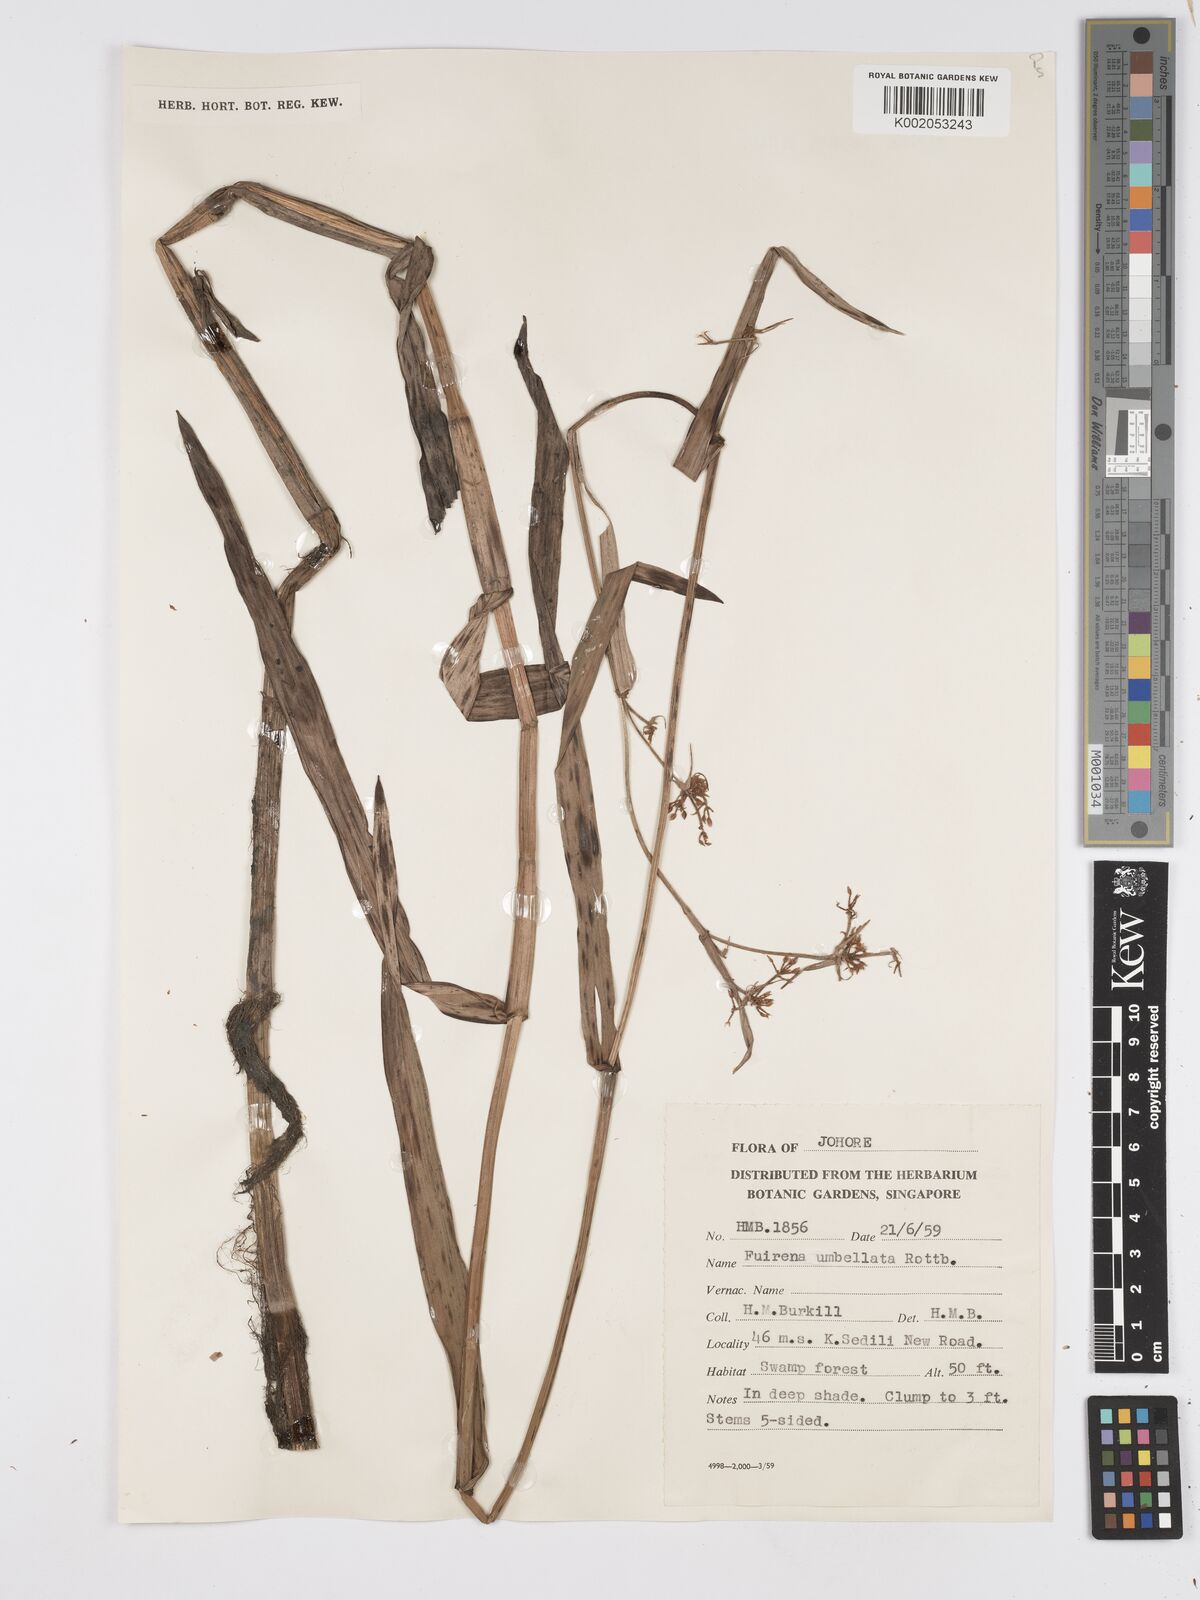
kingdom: Plantae
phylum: Tracheophyta
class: Liliopsida
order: Poales
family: Cyperaceae
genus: Fuirena
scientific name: Fuirena umbellata
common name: Yefen
